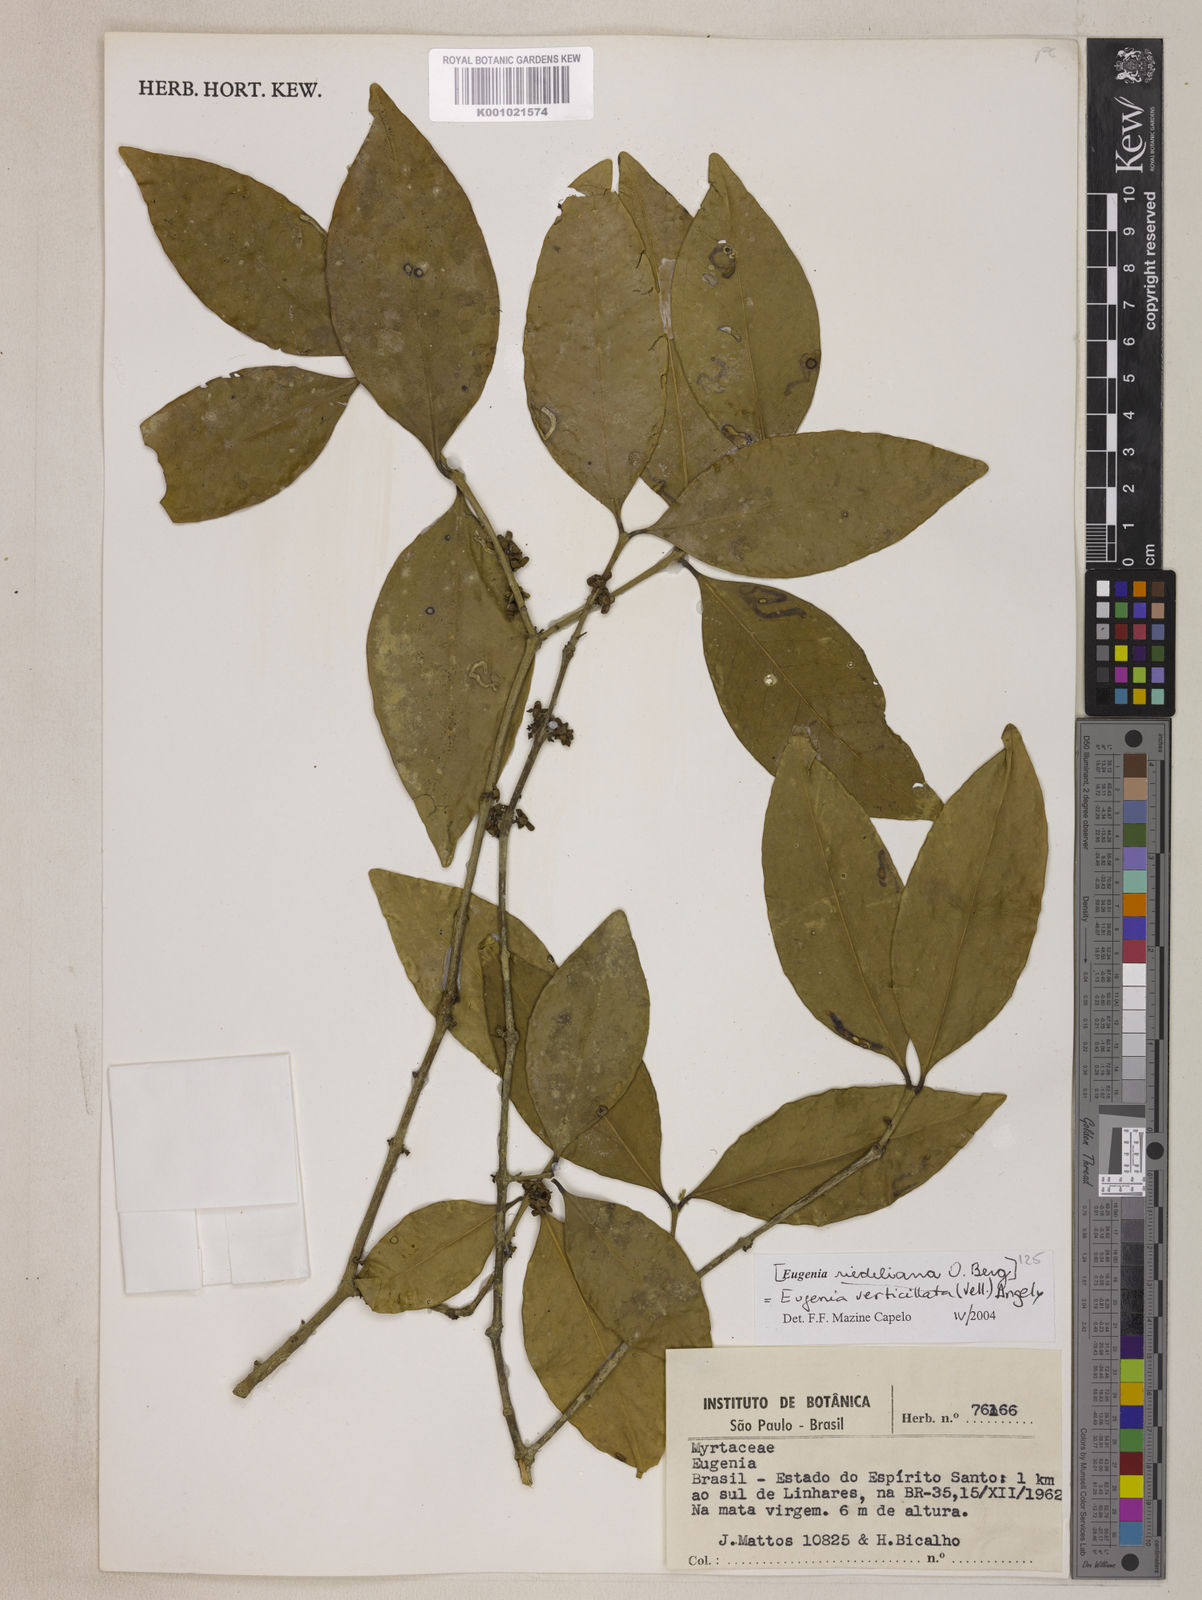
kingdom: Plantae
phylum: Tracheophyta
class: Magnoliopsida
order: Myrtales
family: Myrtaceae
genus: Eugenia
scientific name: Eugenia verticillata
